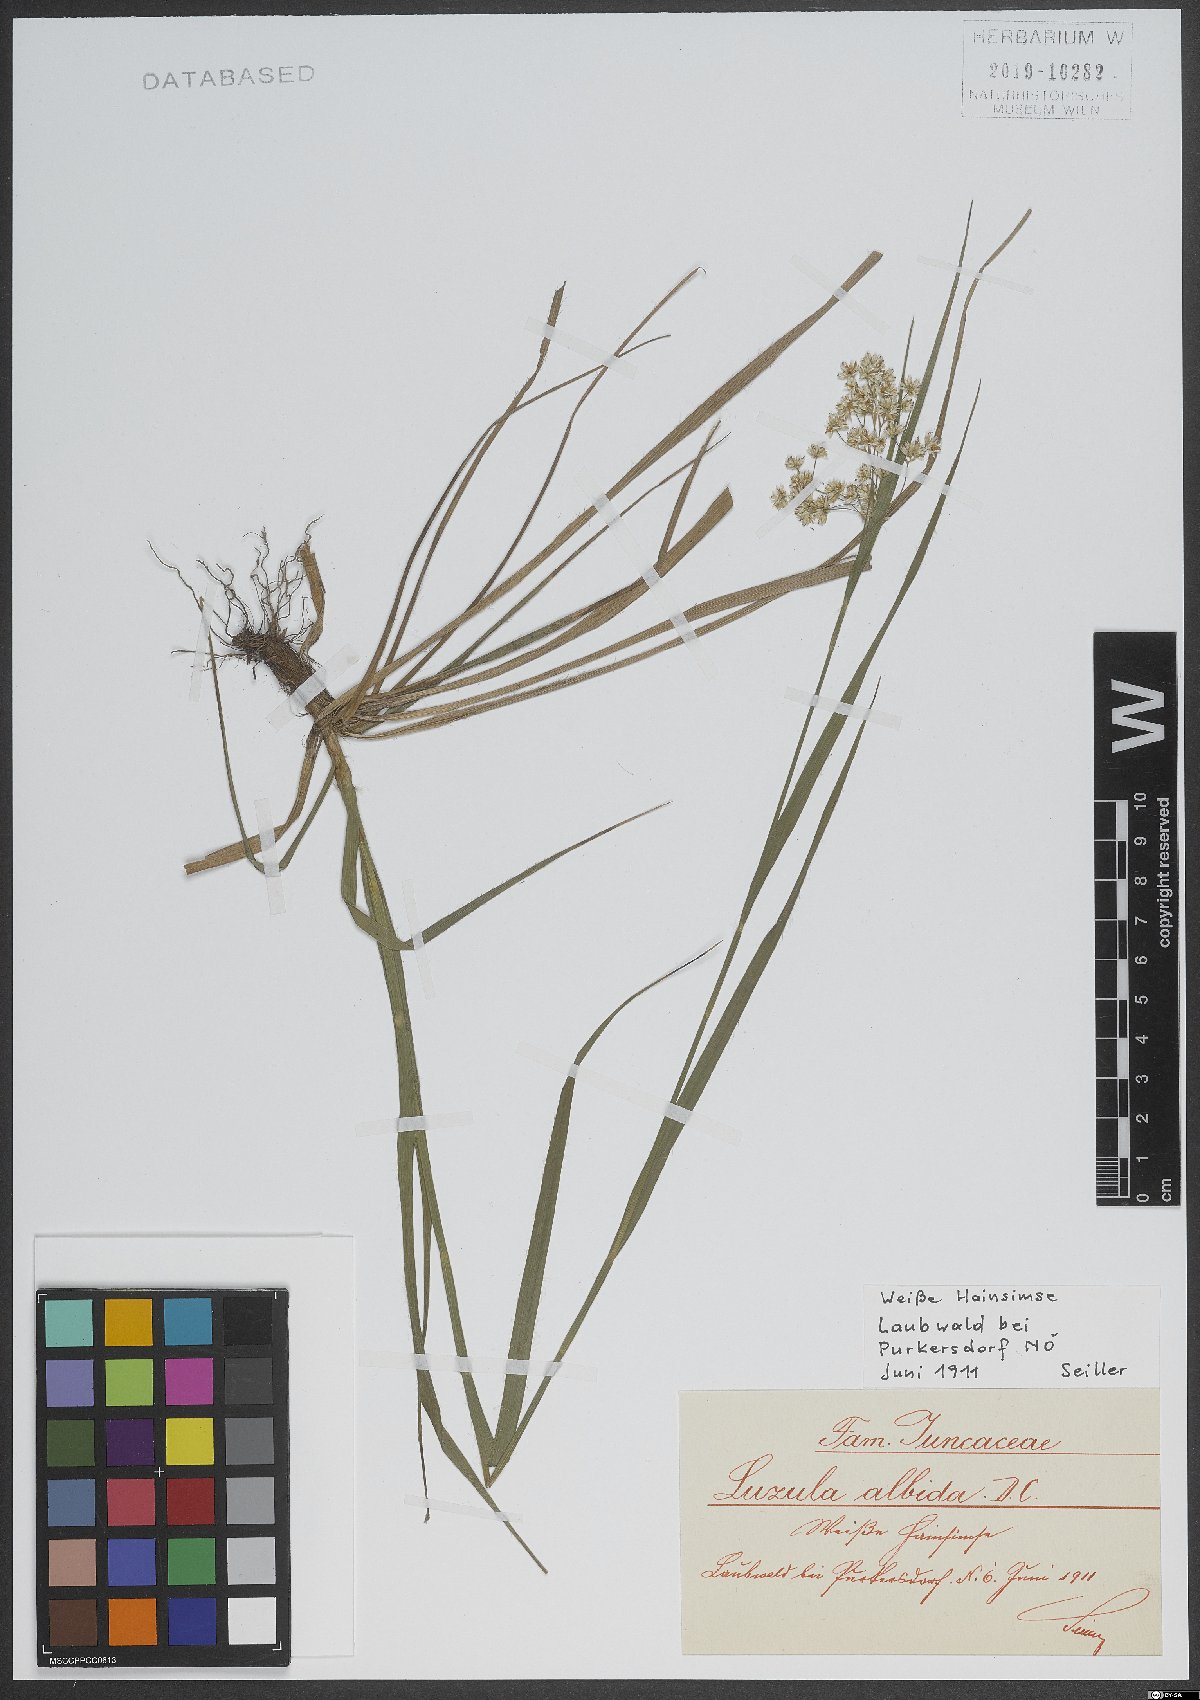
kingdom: Plantae
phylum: Tracheophyta
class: Liliopsida
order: Poales
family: Juncaceae
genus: Luzula
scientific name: Luzula luzuloides
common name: White wood-rush
